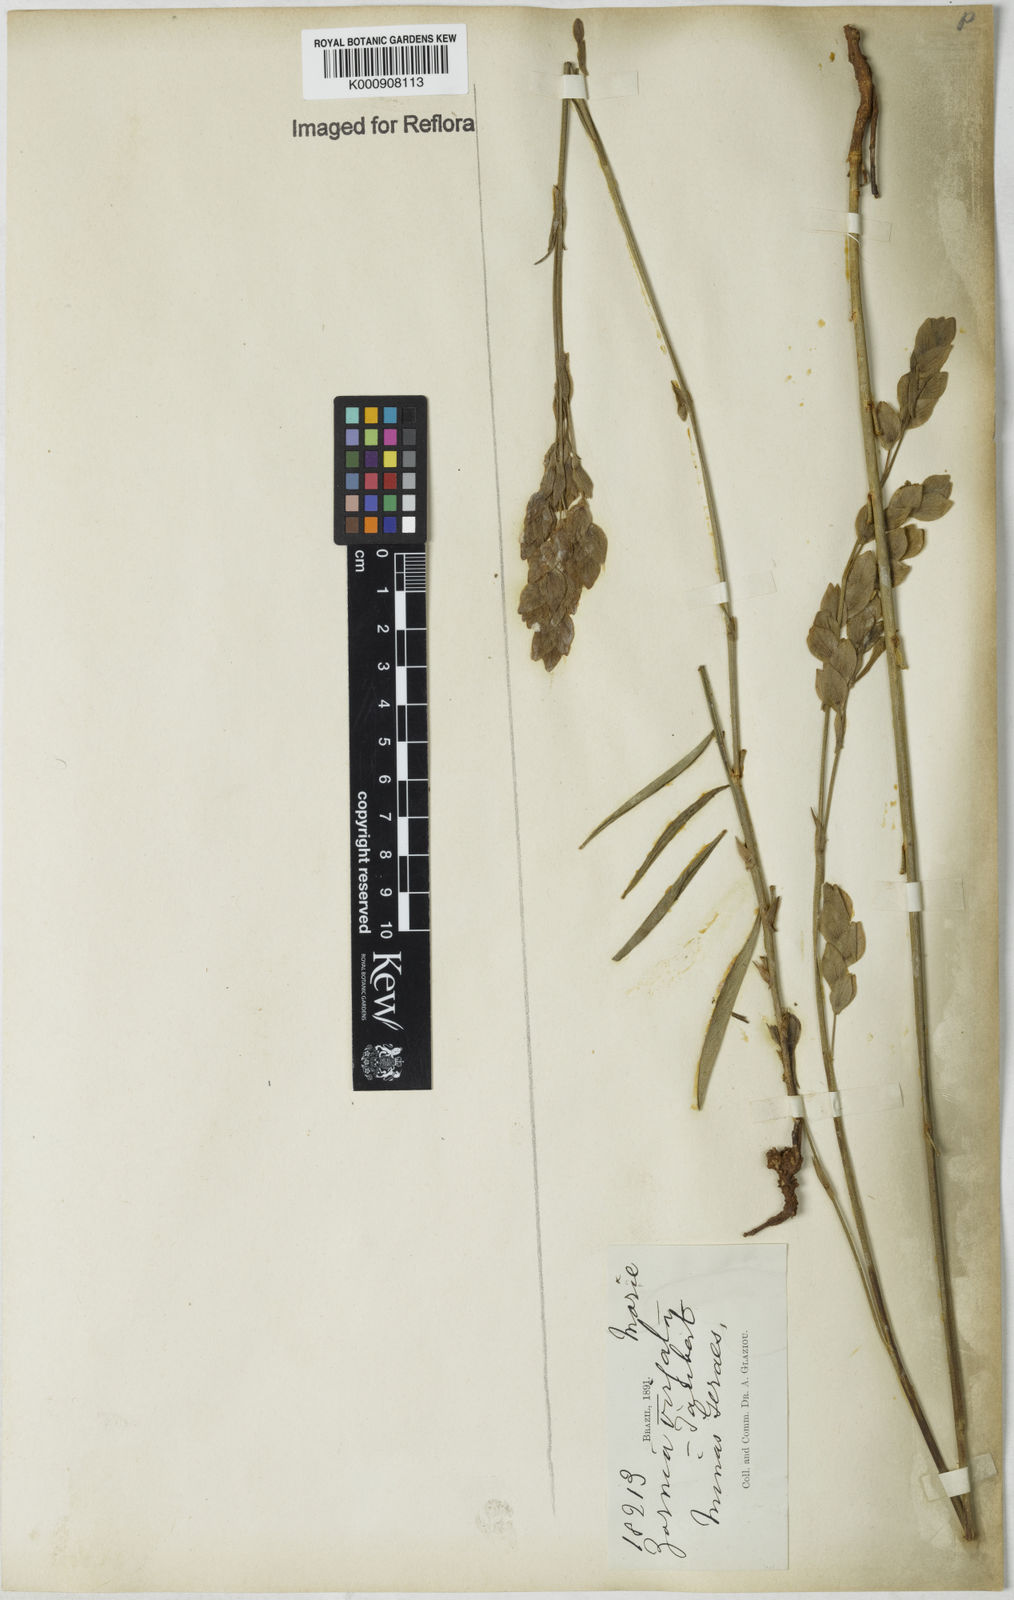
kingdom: Plantae
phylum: Tracheophyta
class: Magnoliopsida
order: Fabales
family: Fabaceae
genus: Zornia
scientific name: Zornia virgata
